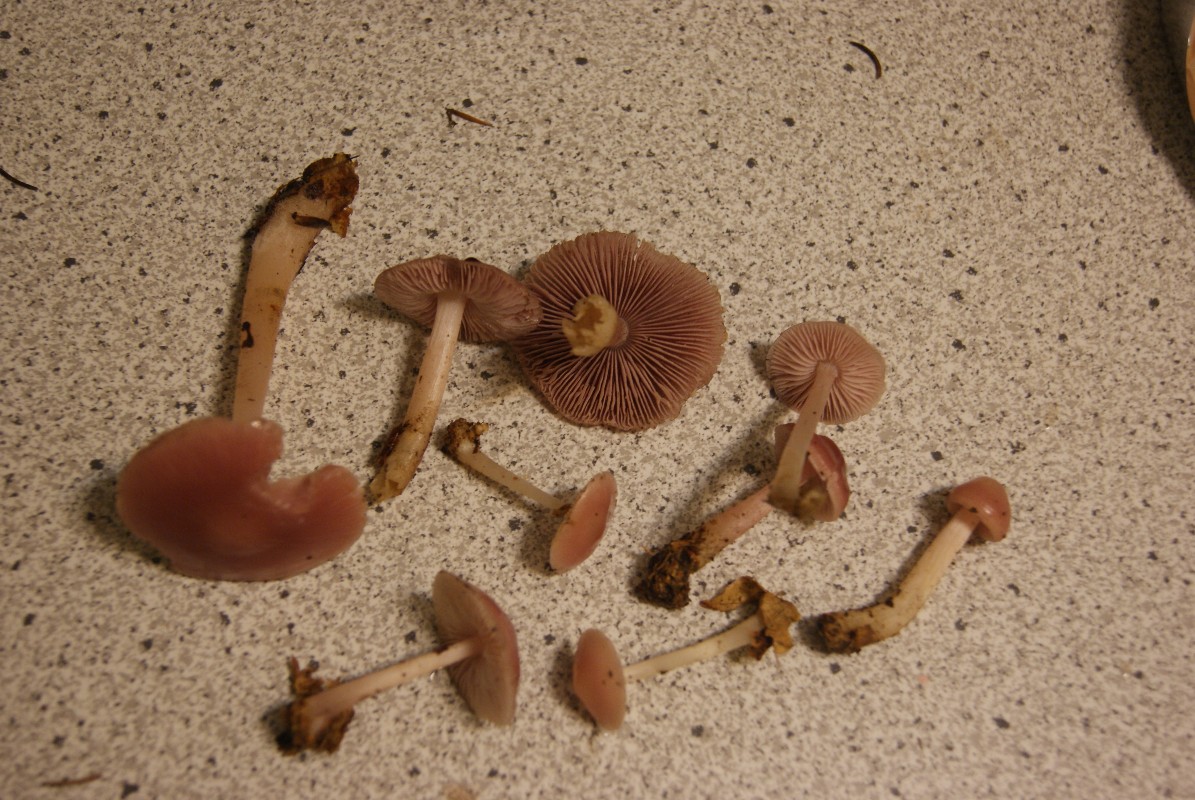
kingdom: Fungi
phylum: Basidiomycota
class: Agaricomycetes
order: Agaricales
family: Mycenaceae
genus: Mycena
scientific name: Mycena rosea
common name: rosa huesvamp
